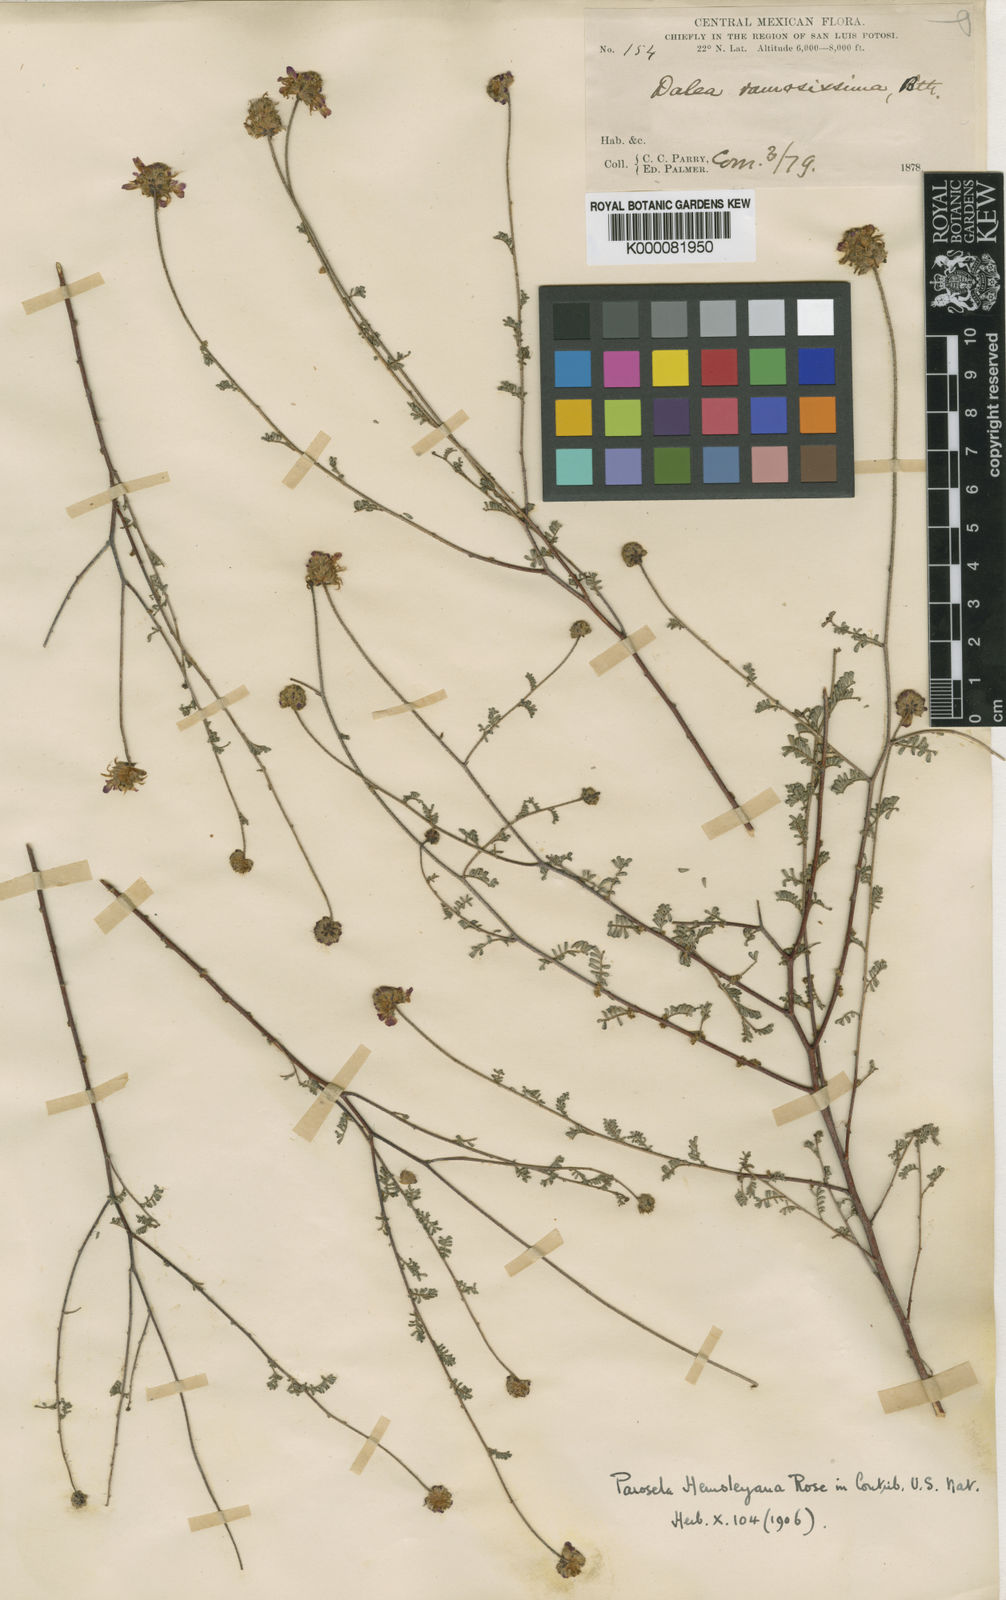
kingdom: Plantae
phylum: Tracheophyta
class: Magnoliopsida
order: Fabales
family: Fabaceae
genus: Dalea
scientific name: Dalea hemsleyana
